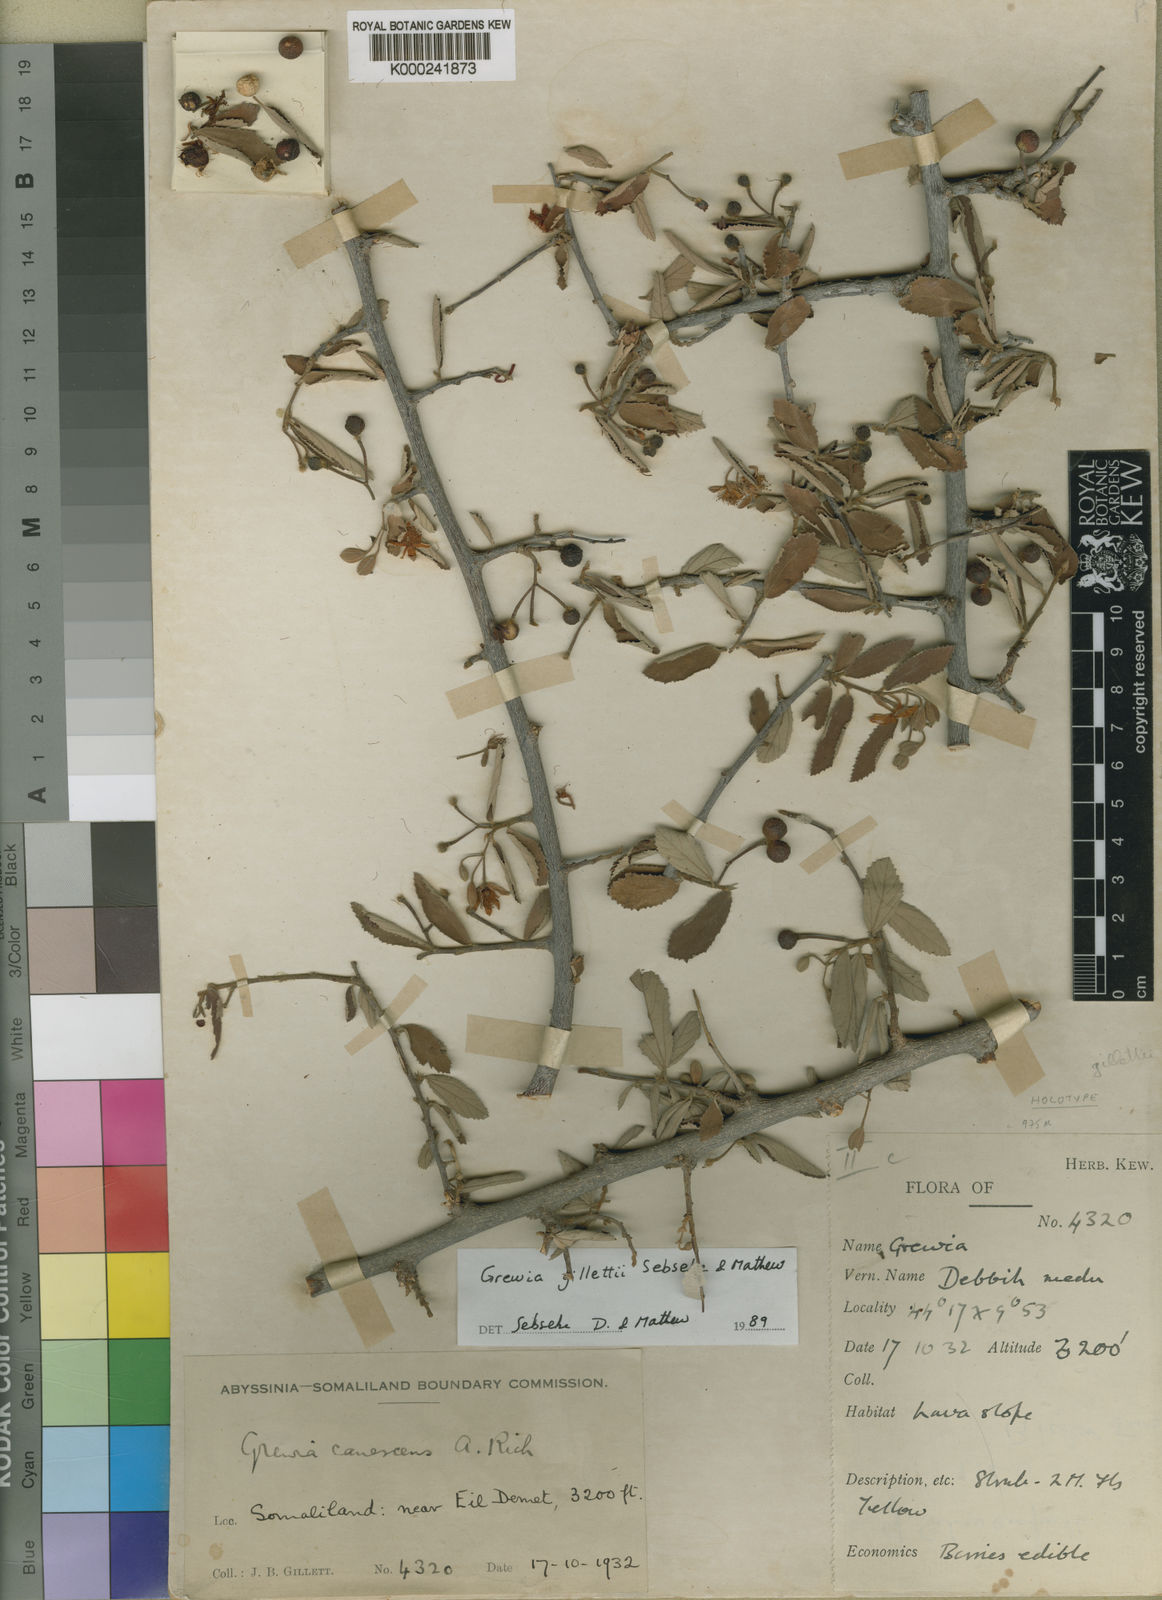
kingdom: Plantae
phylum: Tracheophyta
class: Magnoliopsida
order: Malvales
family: Malvaceae
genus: Grewia
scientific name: Grewia gillettii
